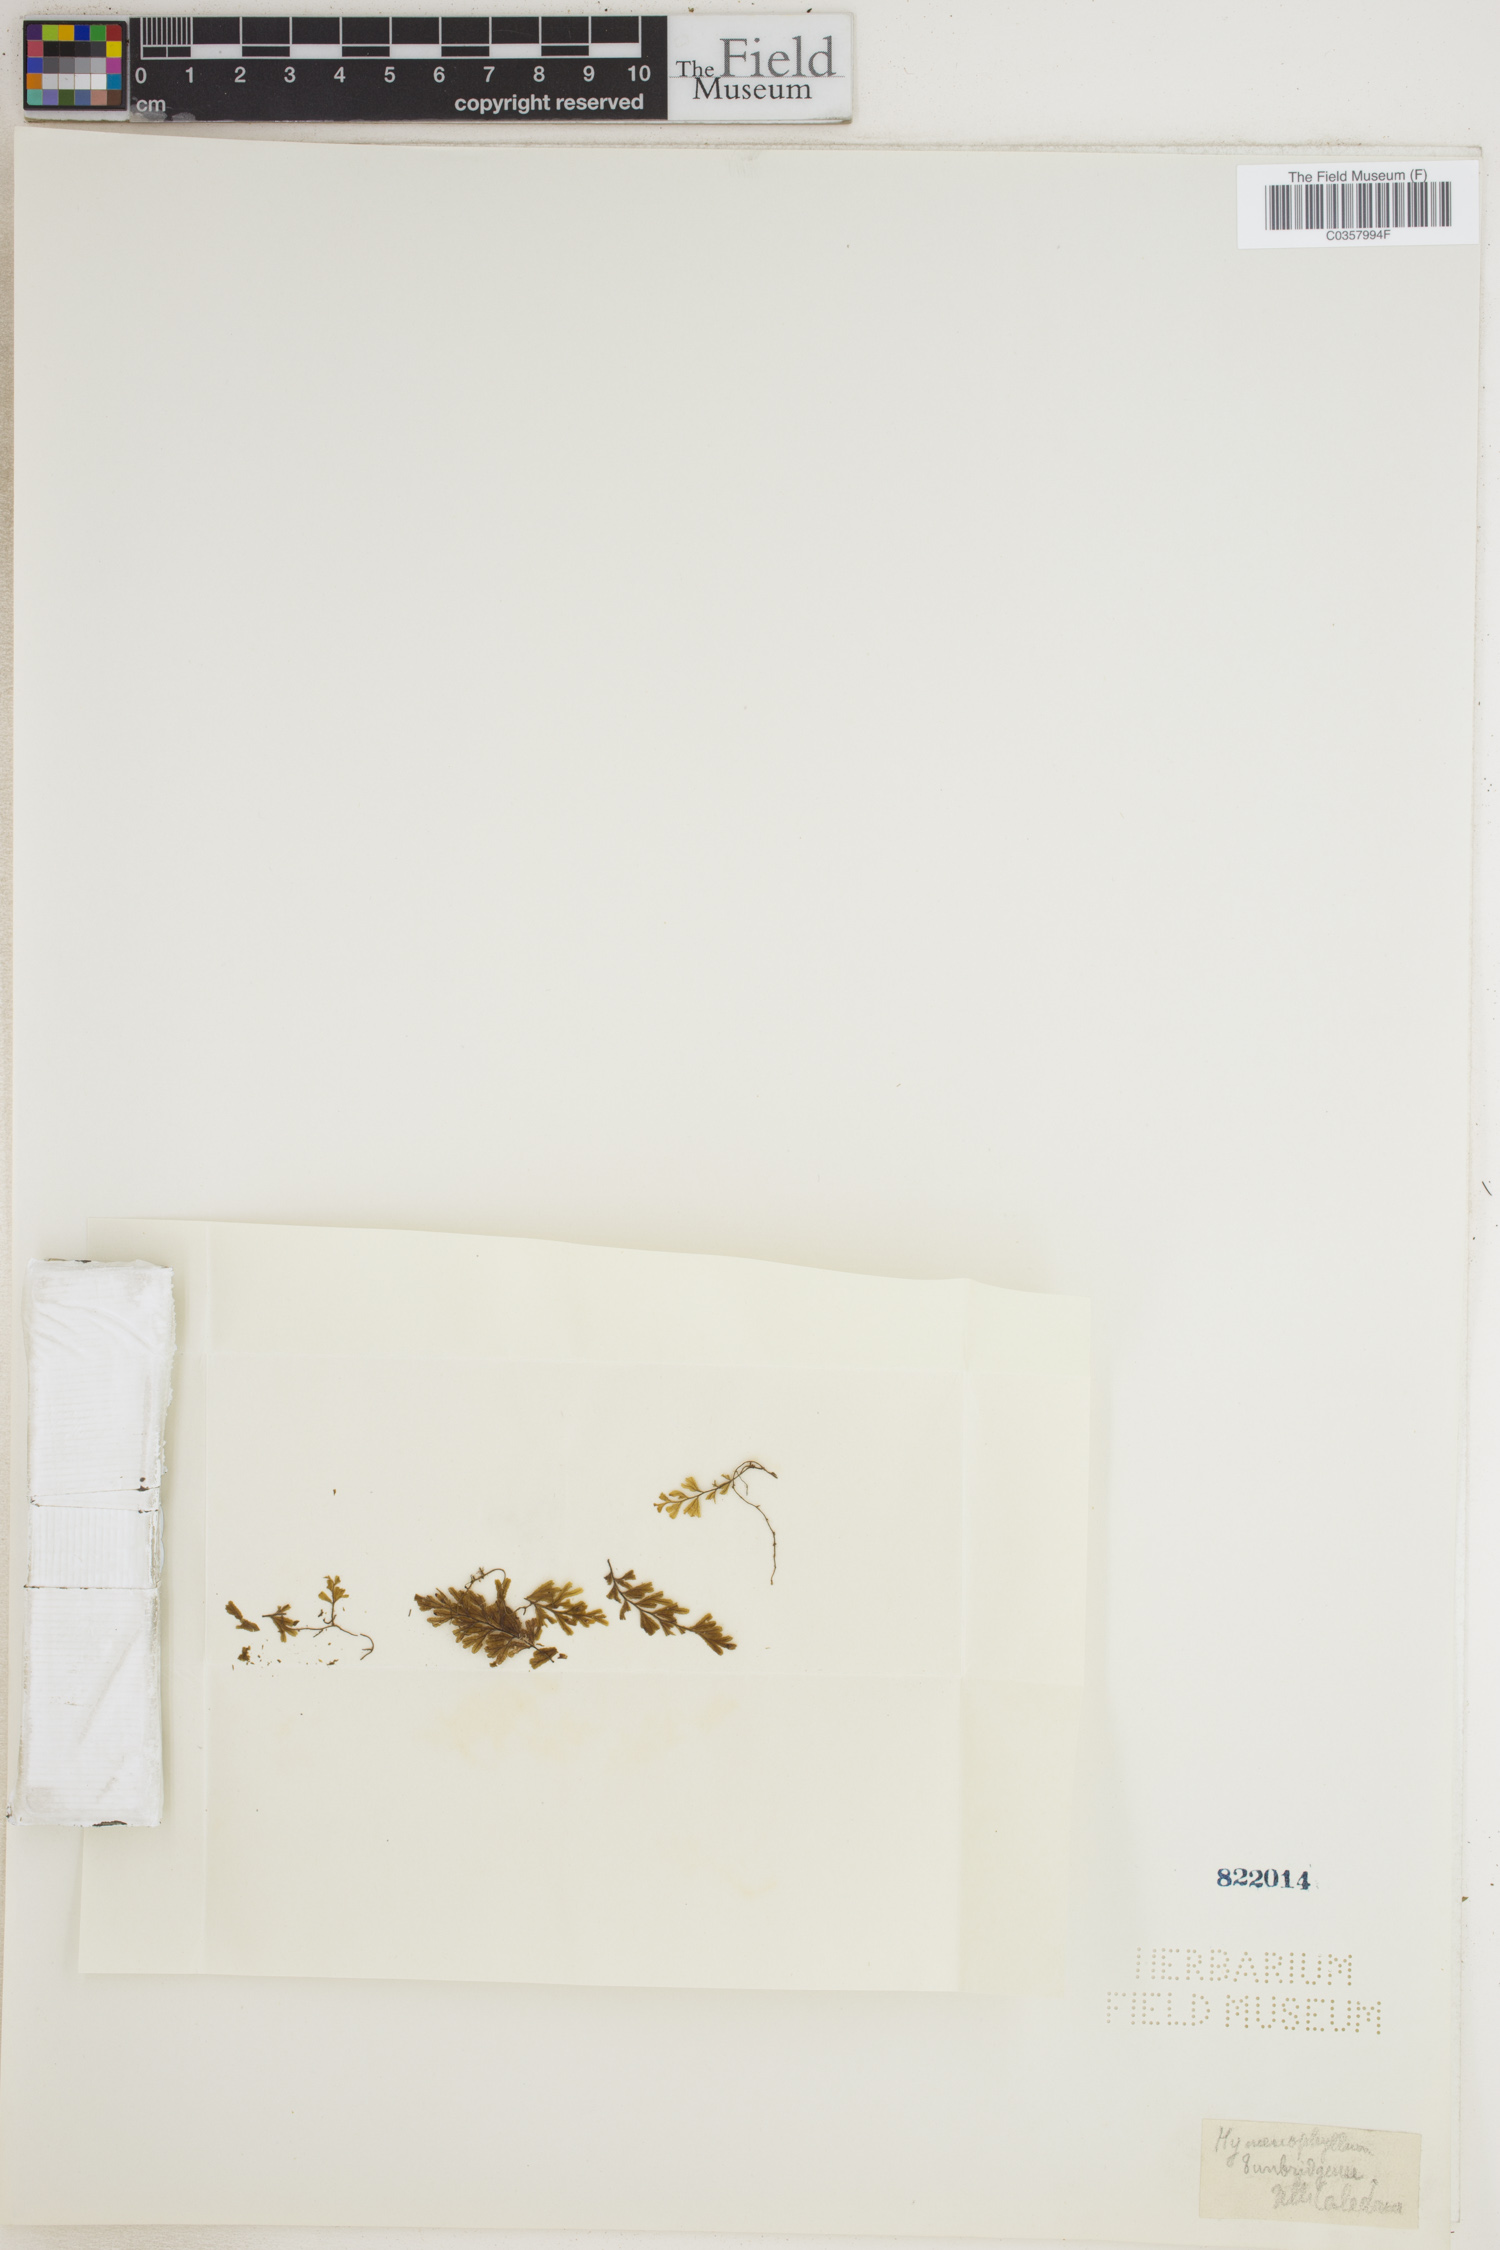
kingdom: Plantae
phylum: Tracheophyta
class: Polypodiopsida
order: Hymenophyllales
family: Hymenophyllaceae
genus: Hymenophyllum
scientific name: Hymenophyllum tunbridgense
